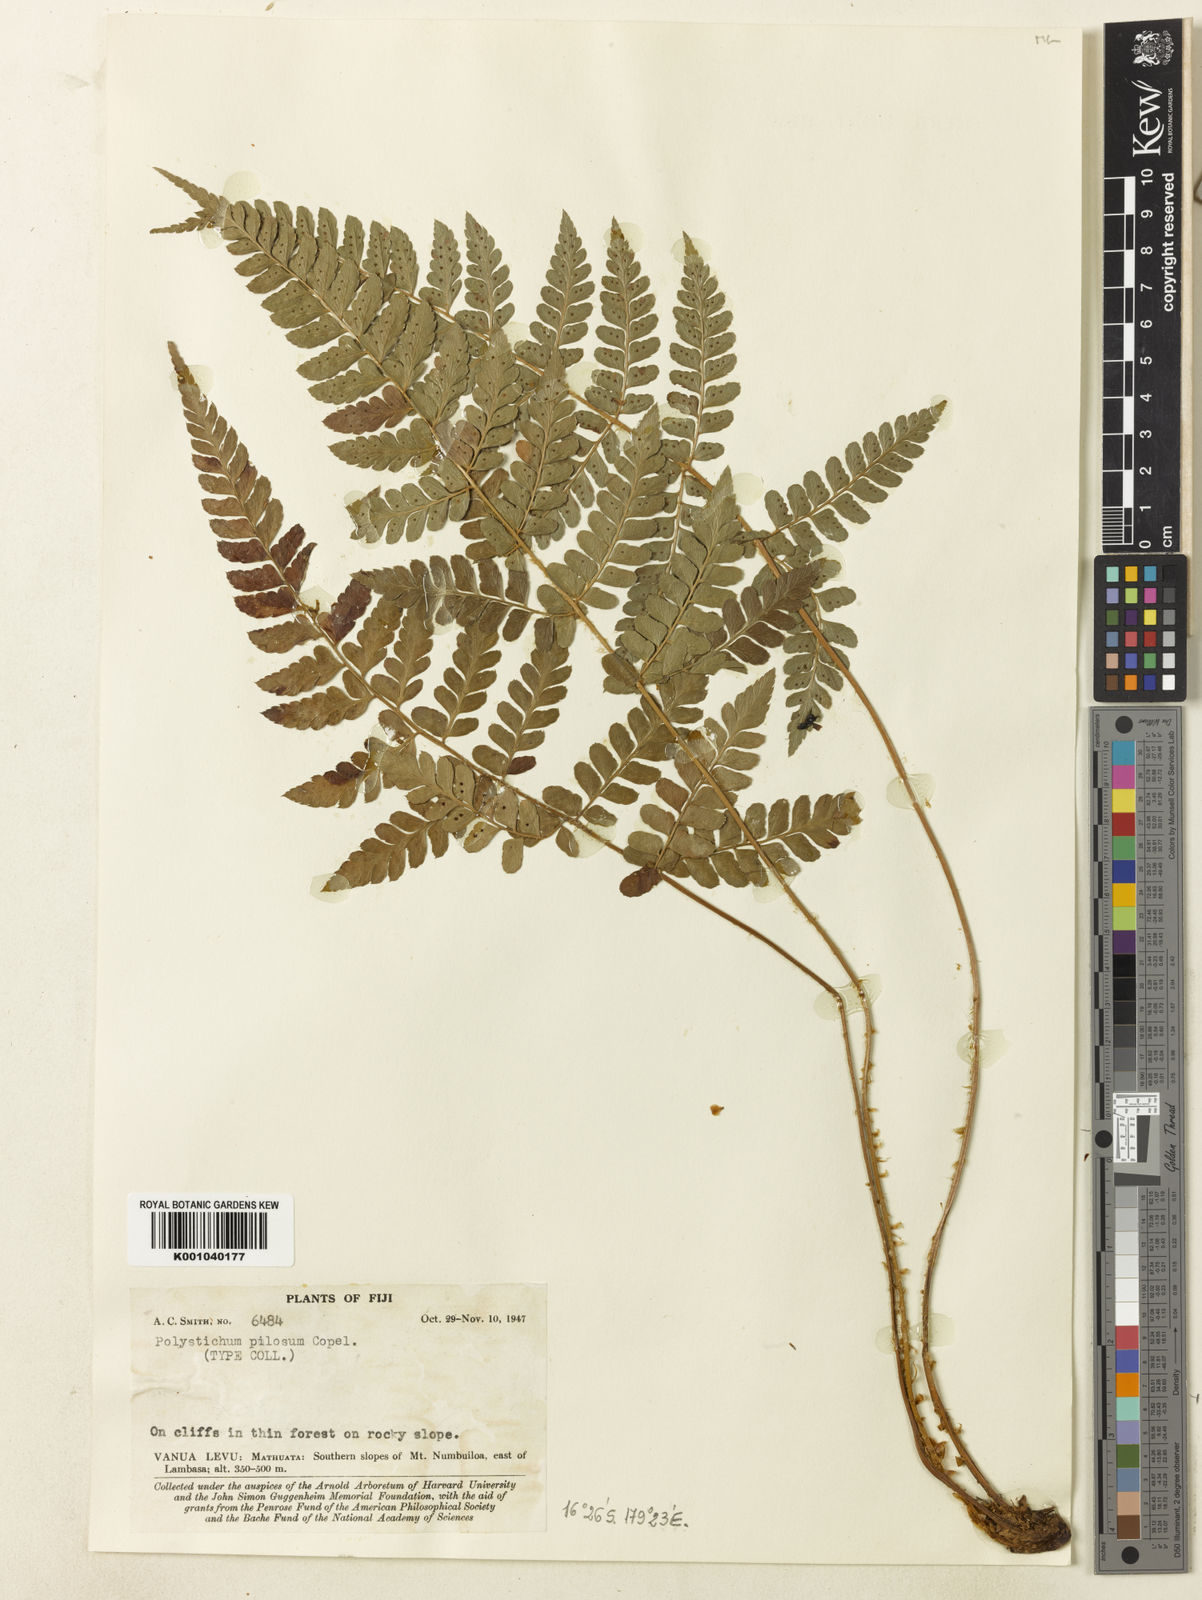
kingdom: Plantae
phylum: Tracheophyta
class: Polypodiopsida
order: Polypodiales
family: Dryopteridaceae
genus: Polystichum
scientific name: Polystichum pilosum
